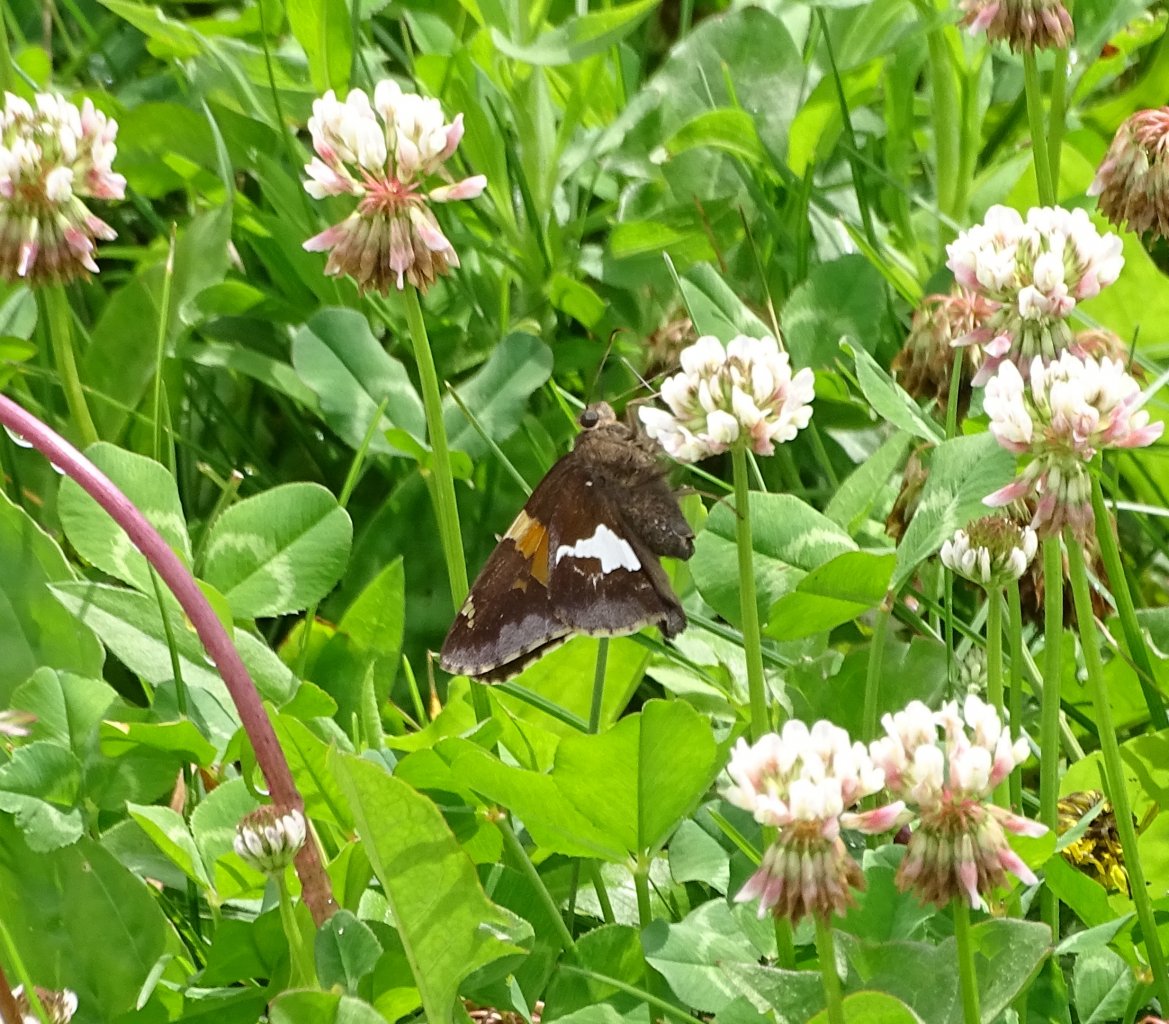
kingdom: Animalia
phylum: Arthropoda
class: Insecta
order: Lepidoptera
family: Hesperiidae
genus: Epargyreus
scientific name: Epargyreus clarus
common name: Silver-spotted Skipper
